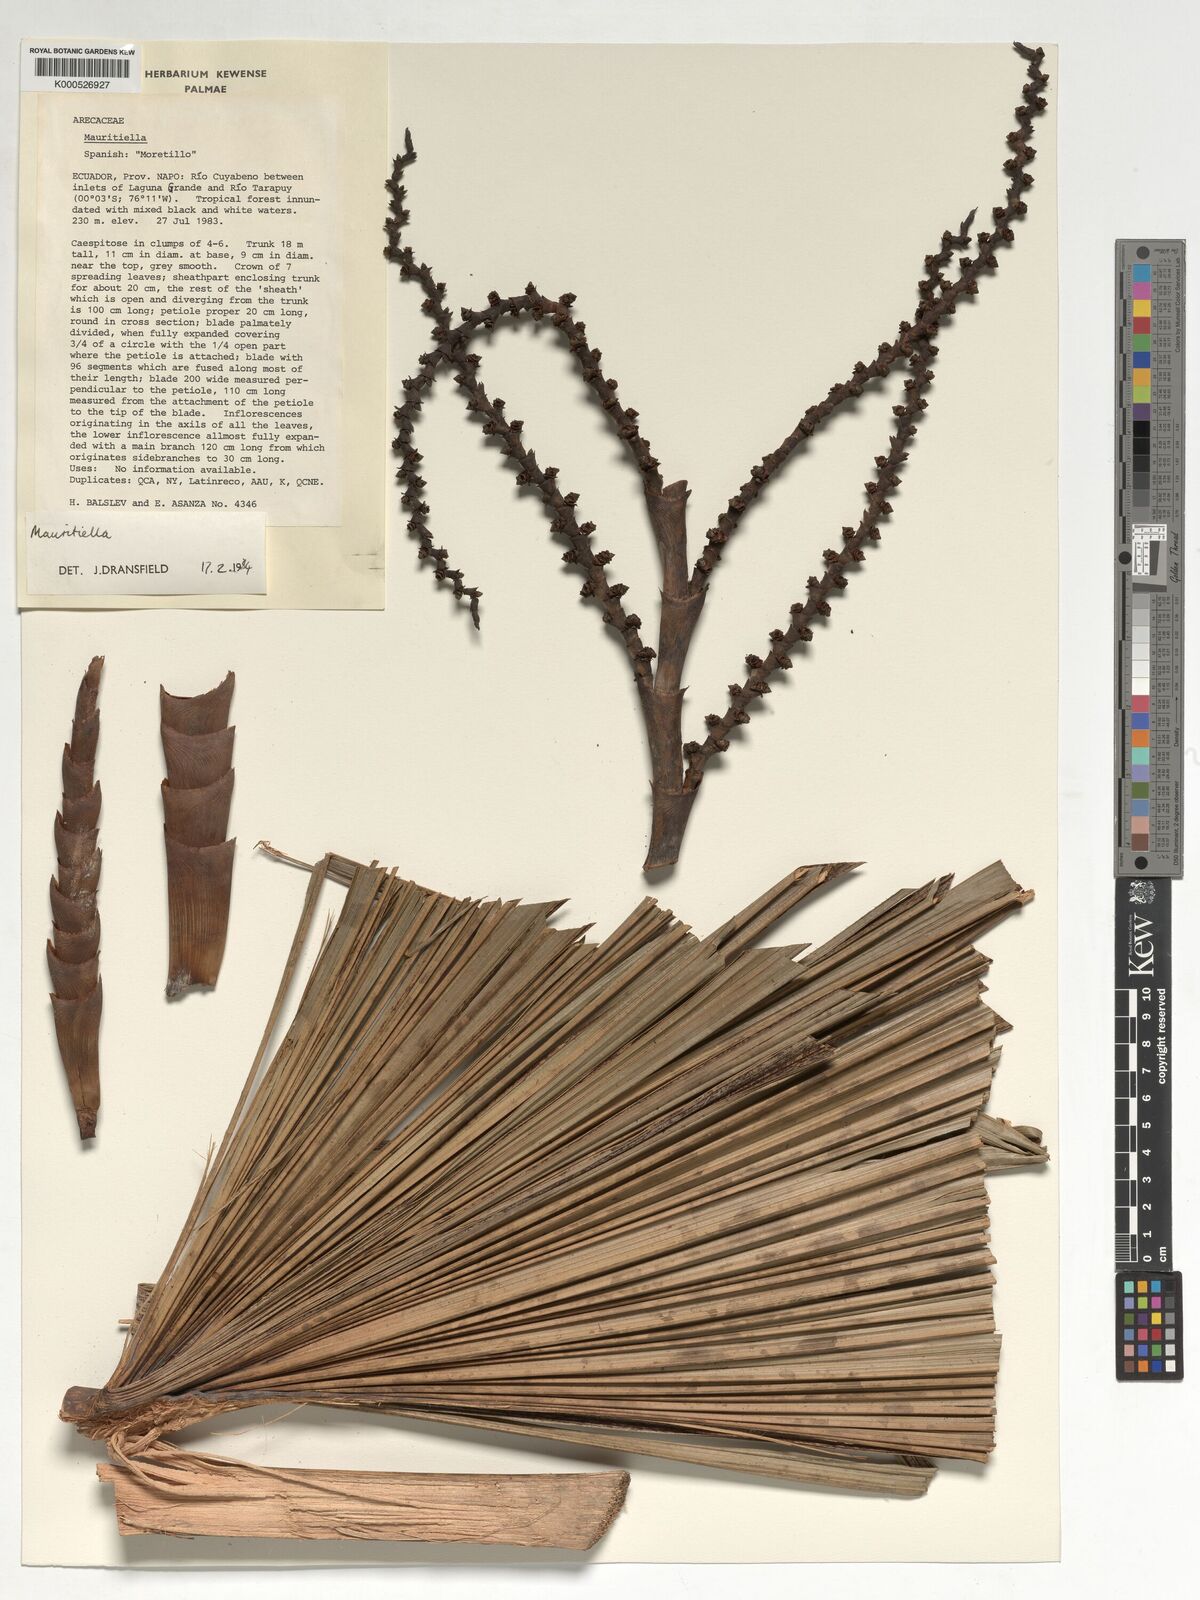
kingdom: Plantae
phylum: Tracheophyta
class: Liliopsida
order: Arecales
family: Arecaceae
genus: Mauritiella
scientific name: Mauritiella
